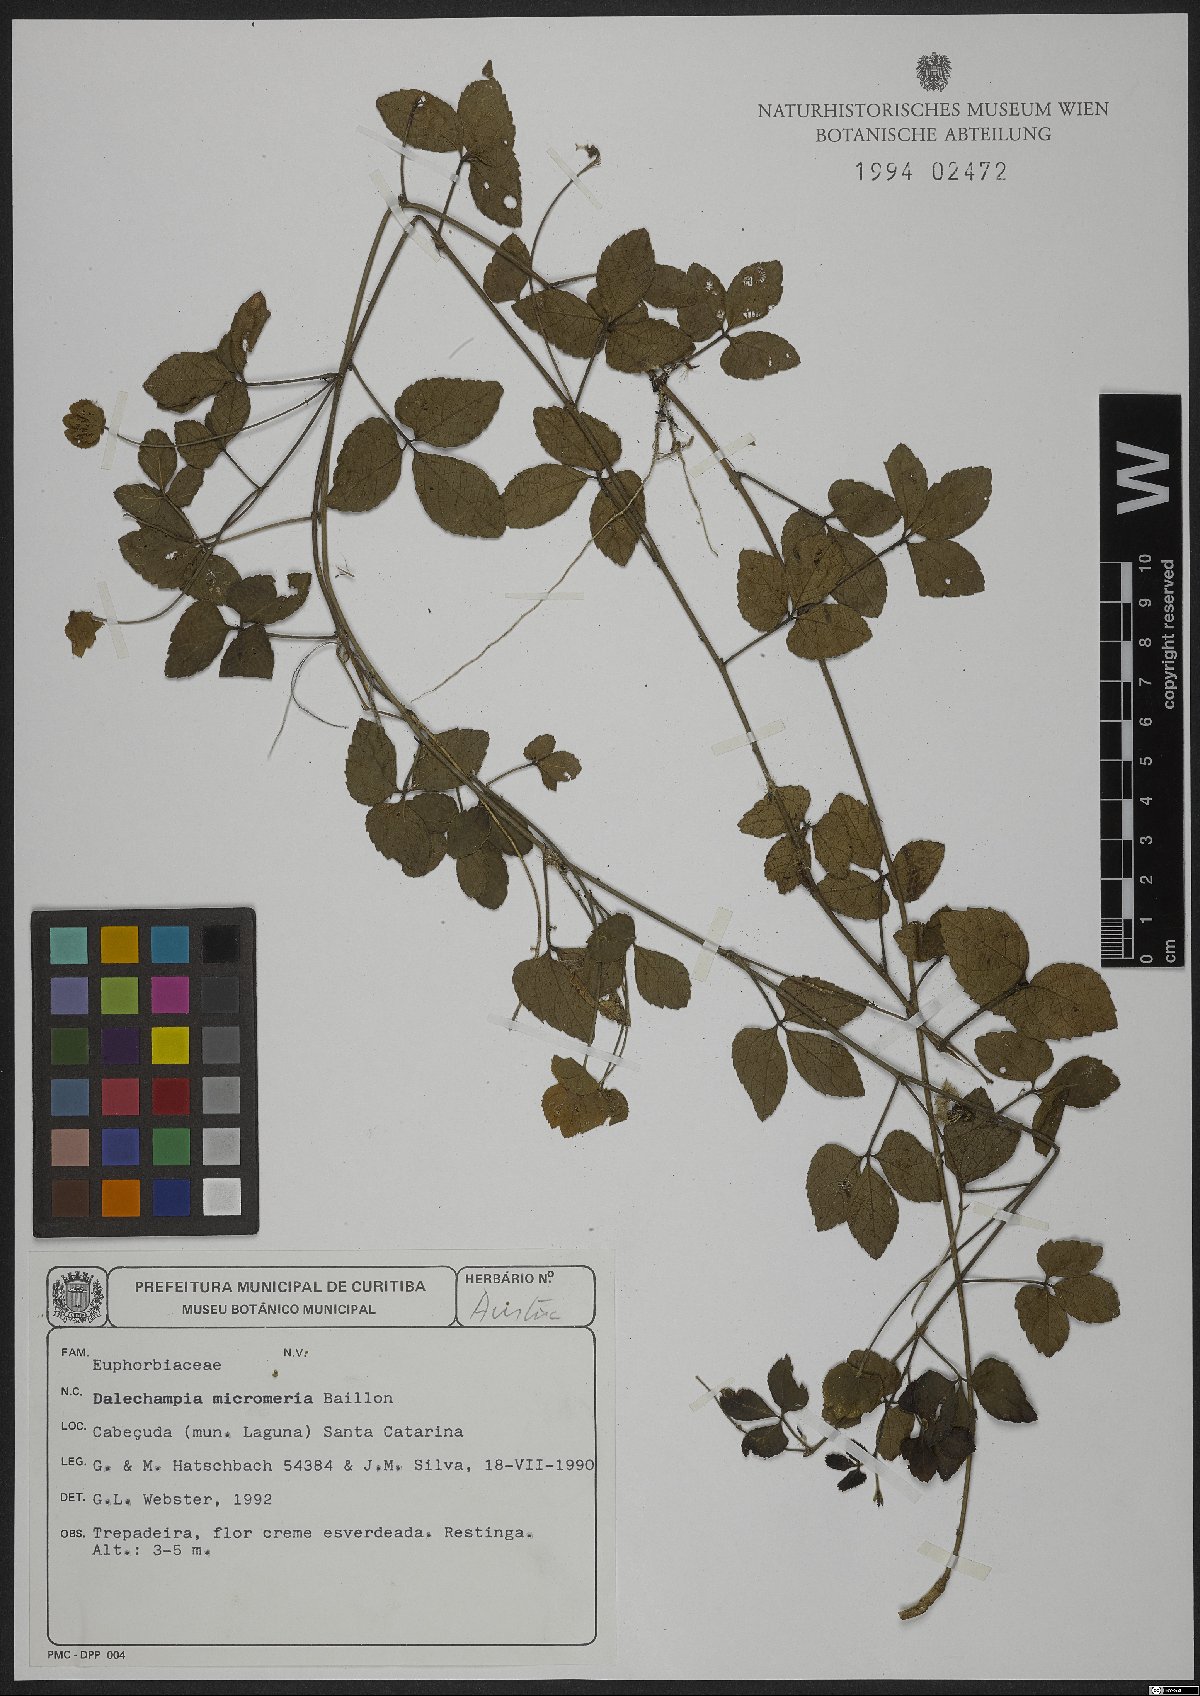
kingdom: Plantae
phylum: Tracheophyta
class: Magnoliopsida
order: Malpighiales
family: Euphorbiaceae
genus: Dalechampia
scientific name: Dalechampia micromeria
